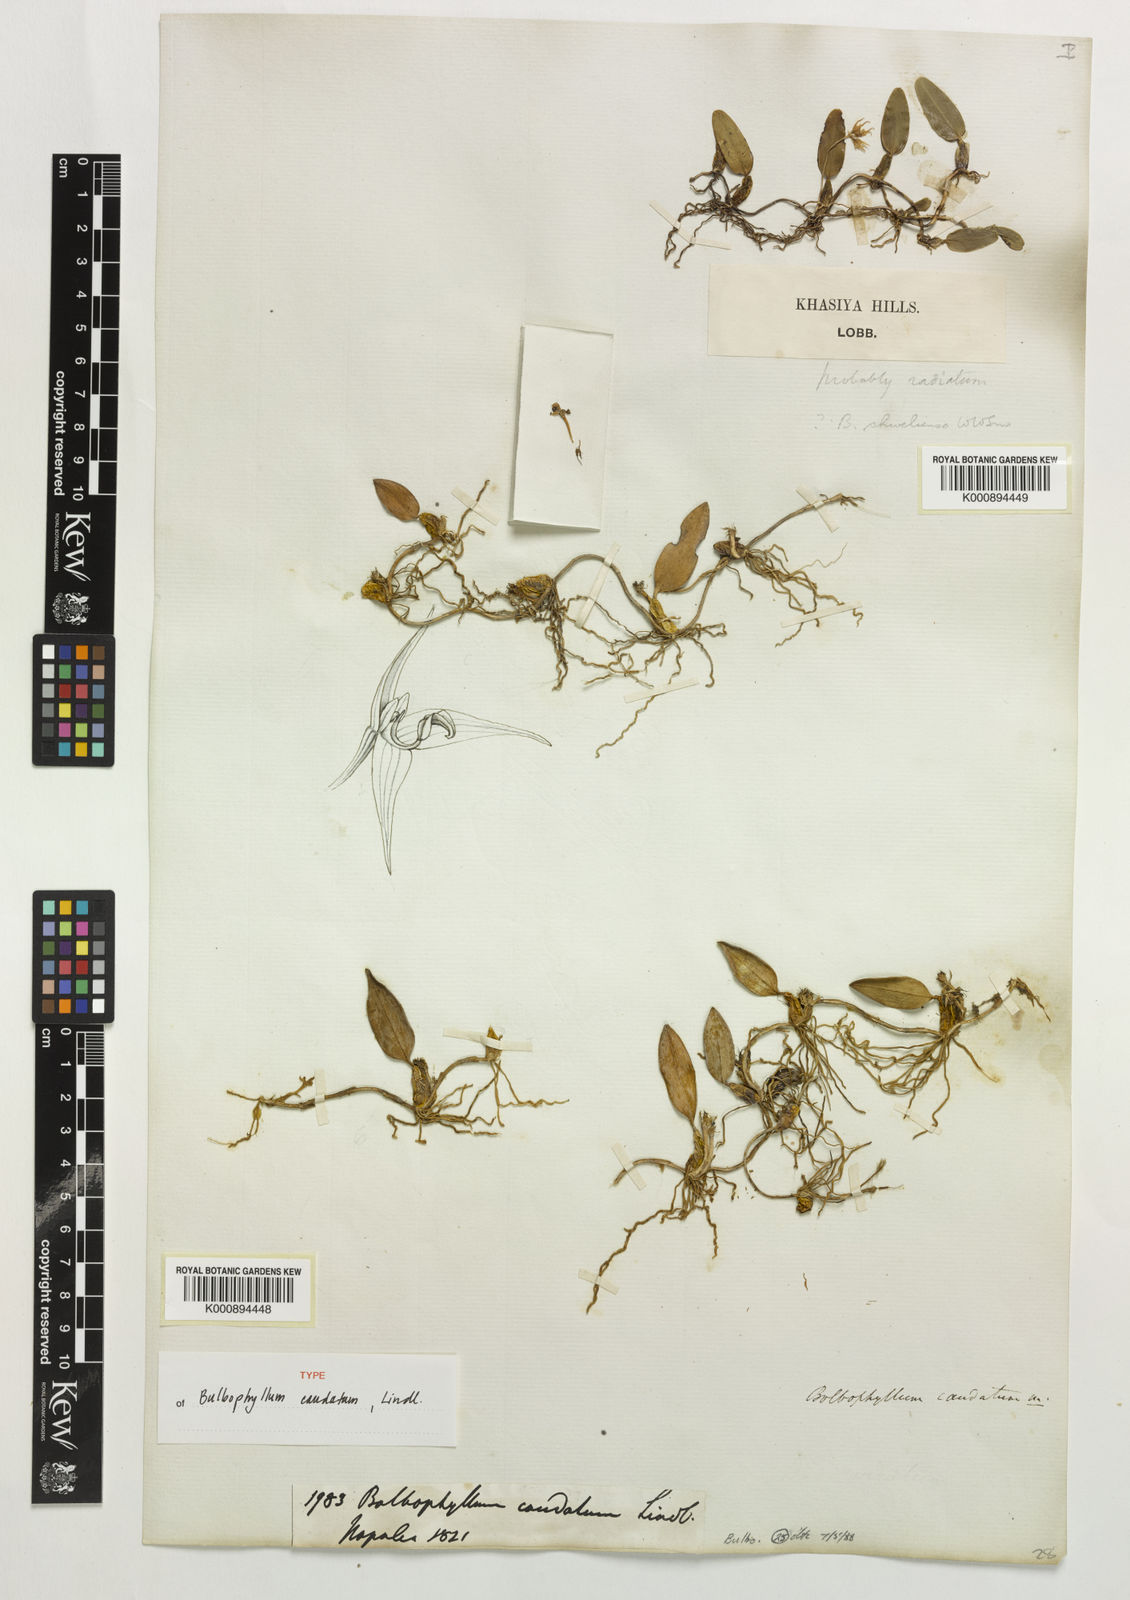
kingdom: Plantae
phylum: Tracheophyta
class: Liliopsida
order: Asparagales
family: Orchidaceae
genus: Bulbophyllum
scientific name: Bulbophyllum caudatum
